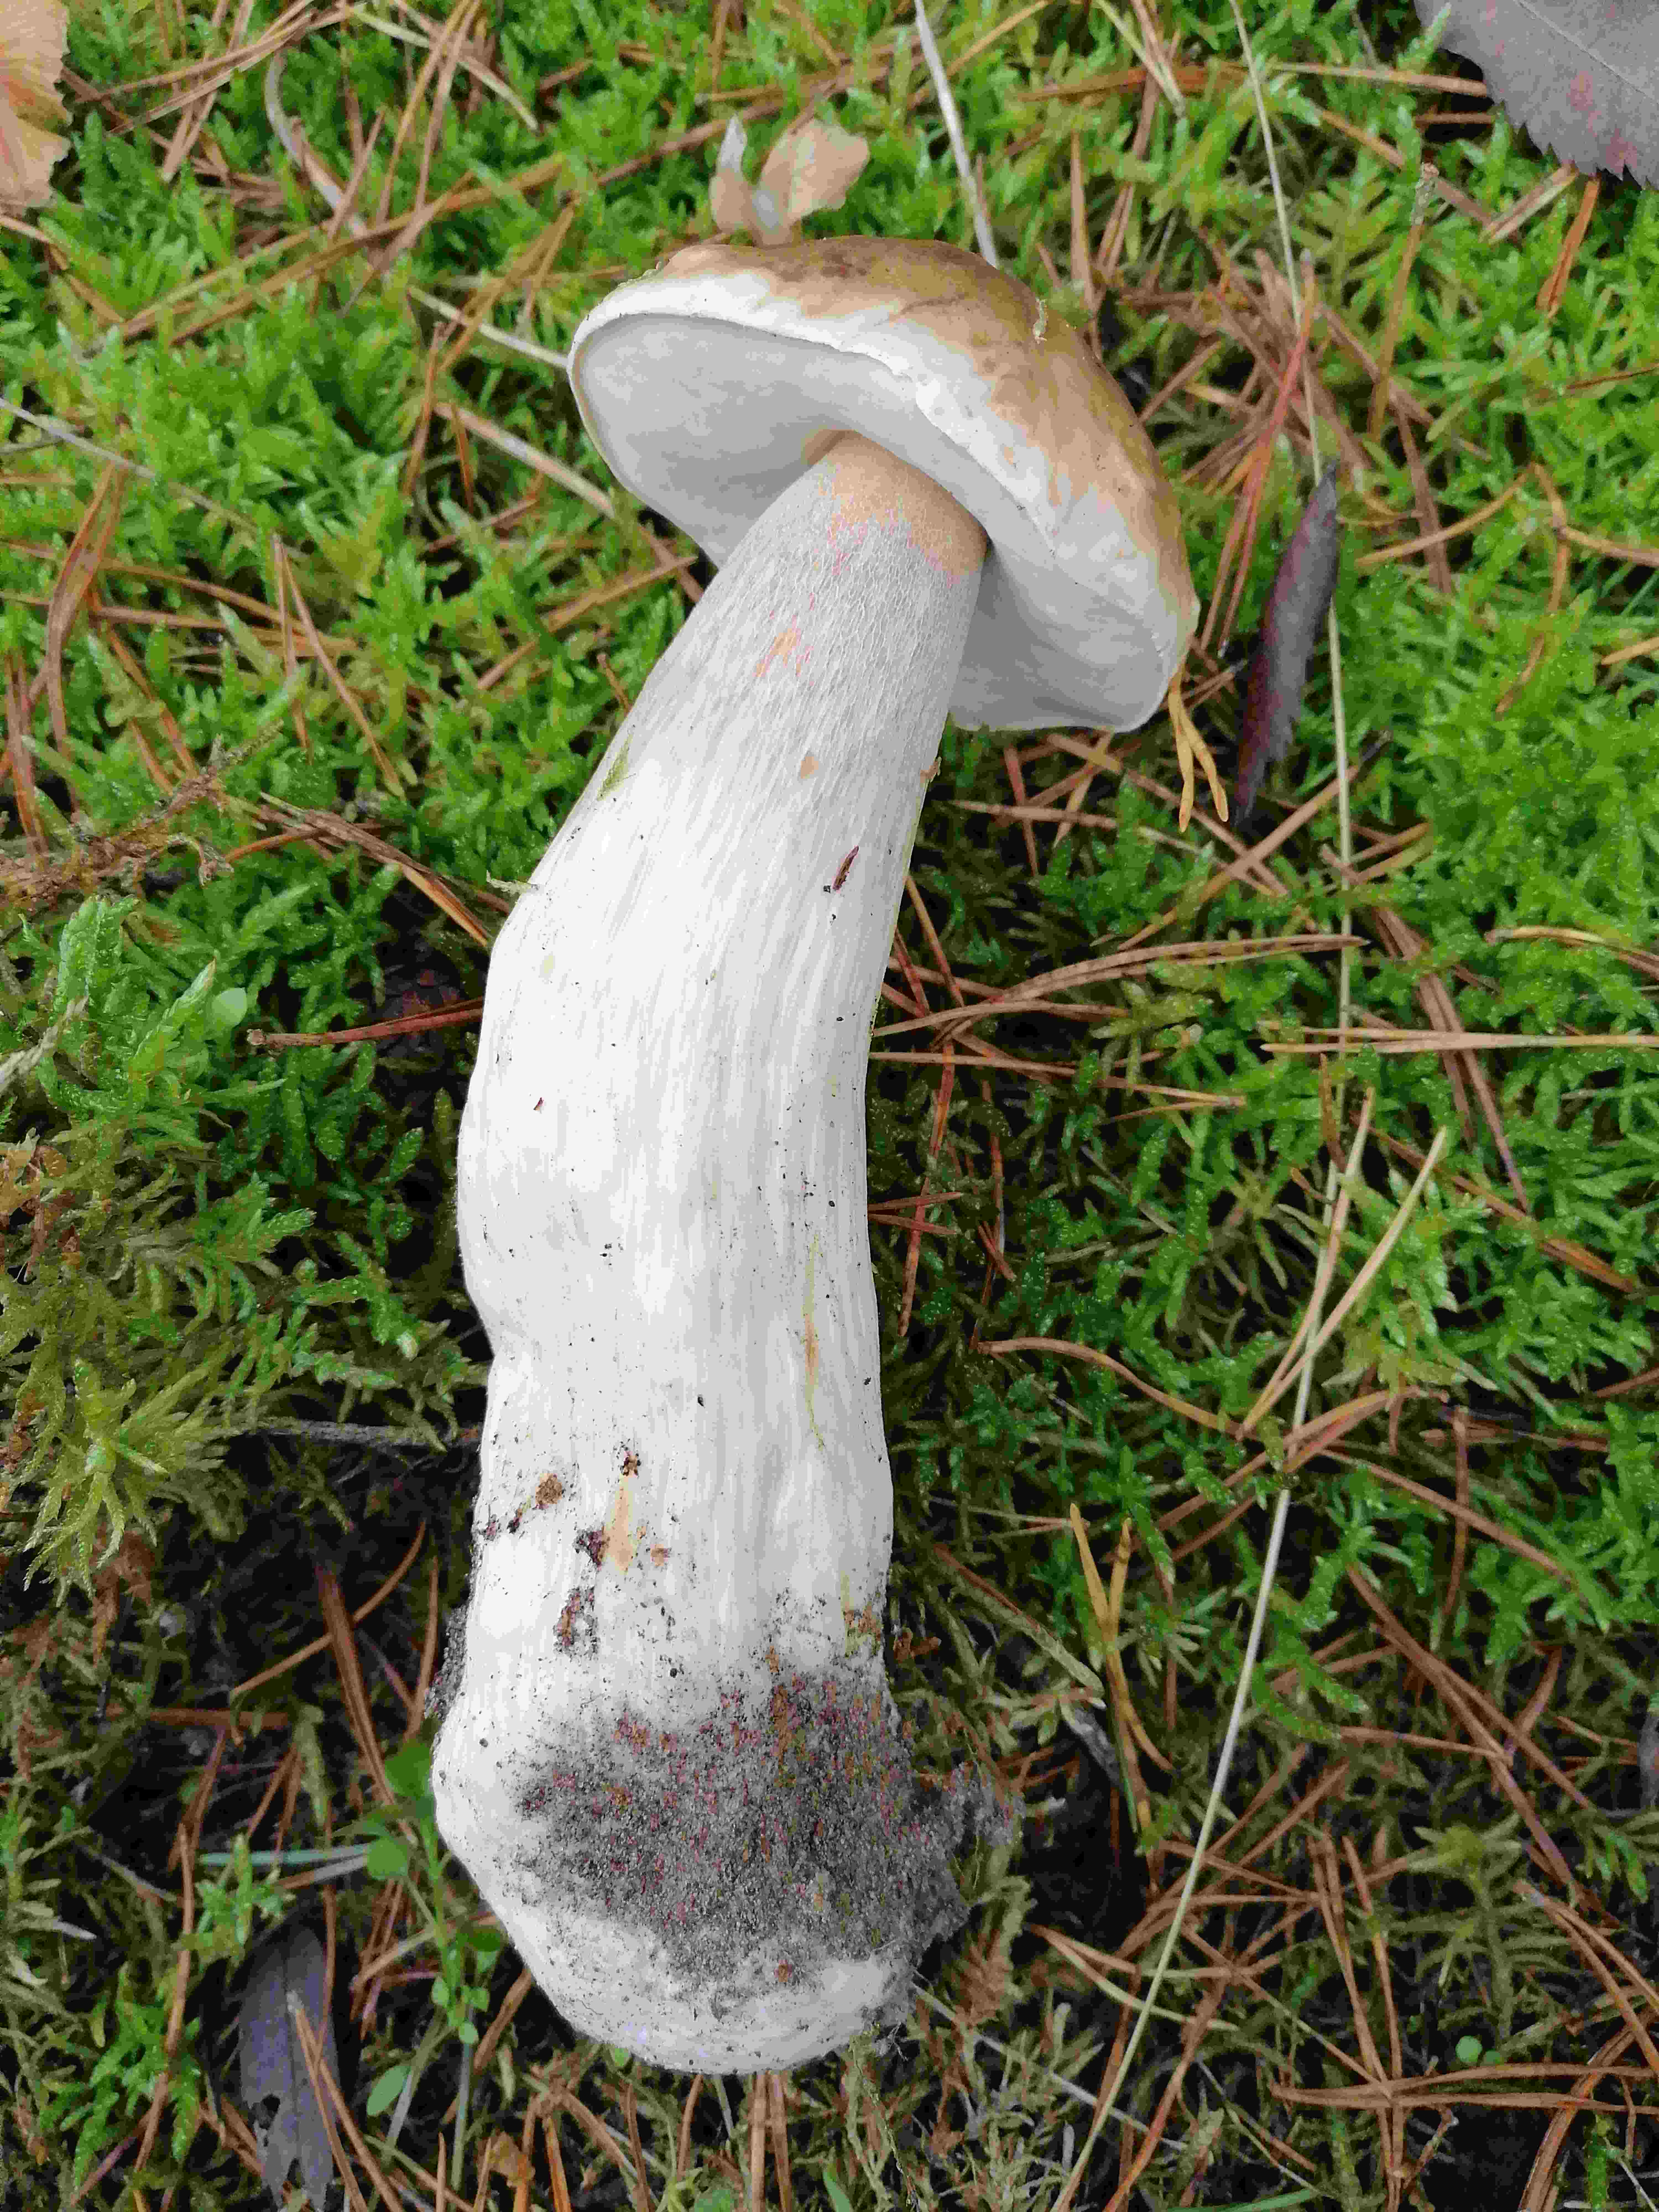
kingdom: Fungi
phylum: Basidiomycota
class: Agaricomycetes
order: Boletales
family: Boletaceae
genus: Boletus
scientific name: Boletus edulis
